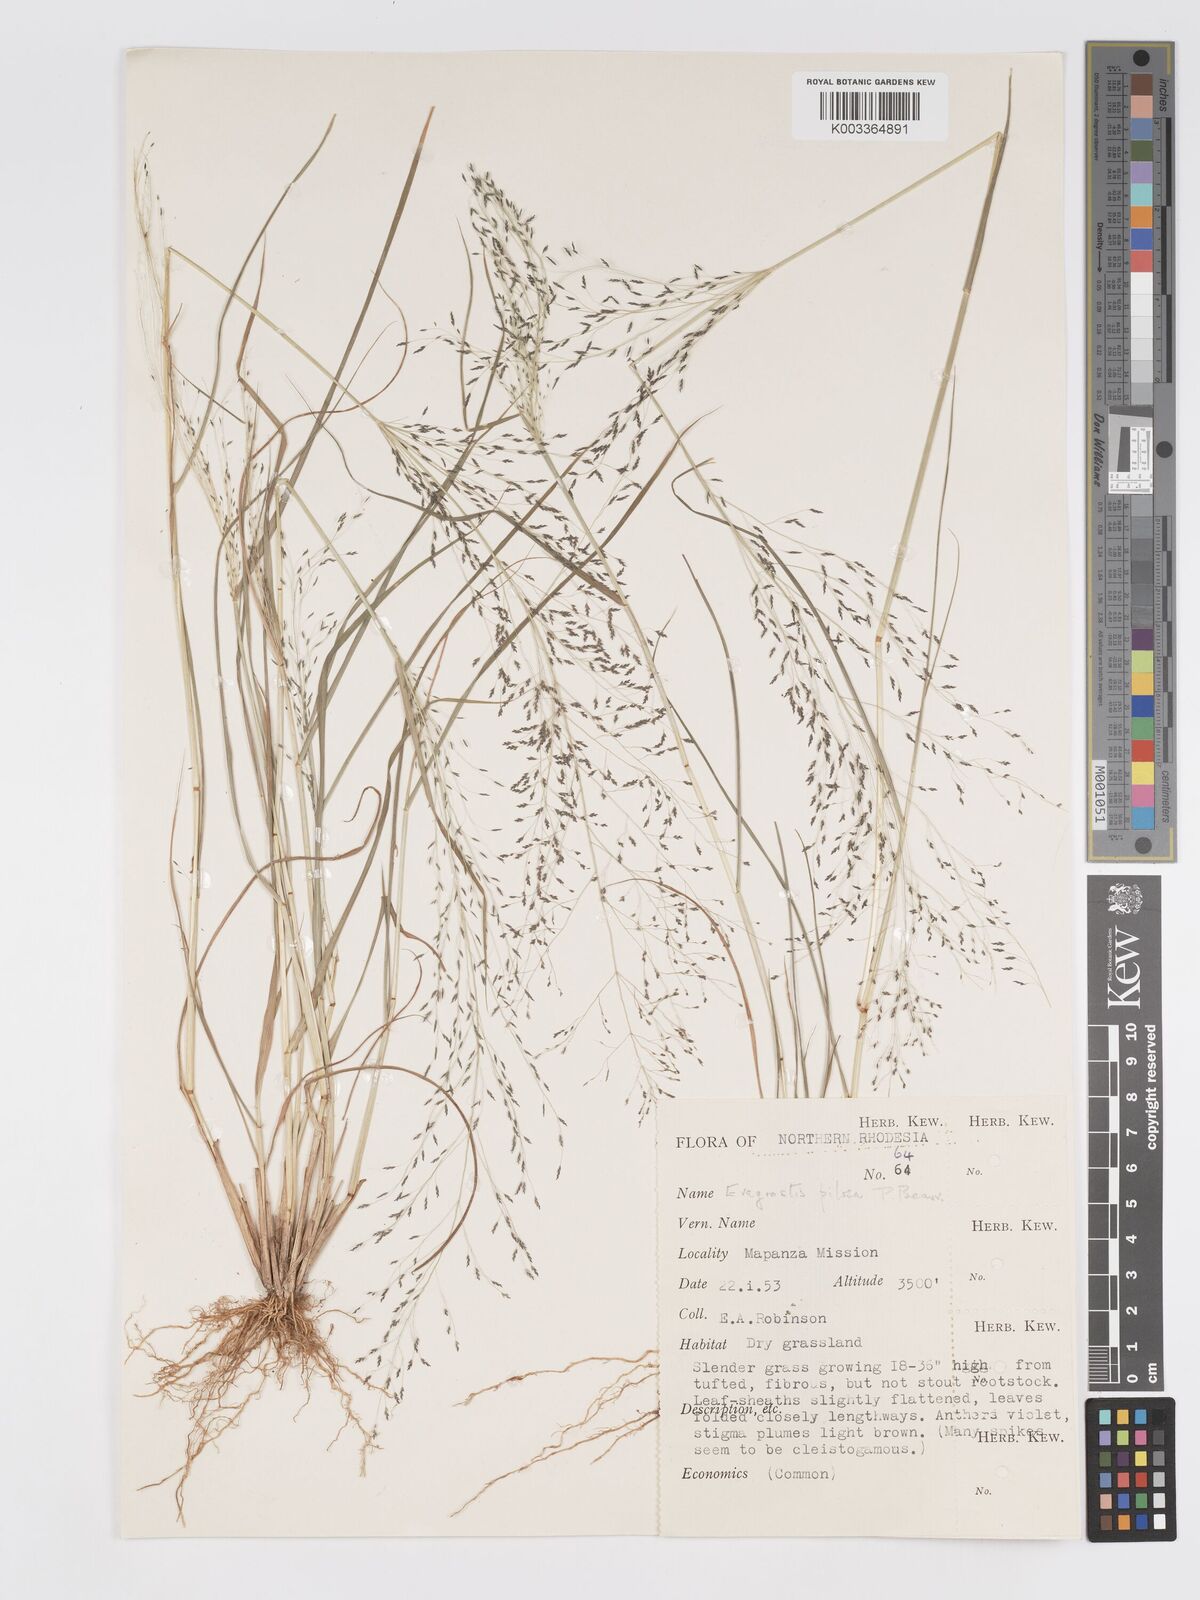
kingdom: Plantae
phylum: Tracheophyta
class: Liliopsida
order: Poales
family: Poaceae
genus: Eragrostis
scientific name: Eragrostis pilosa
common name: Indian lovegrass
